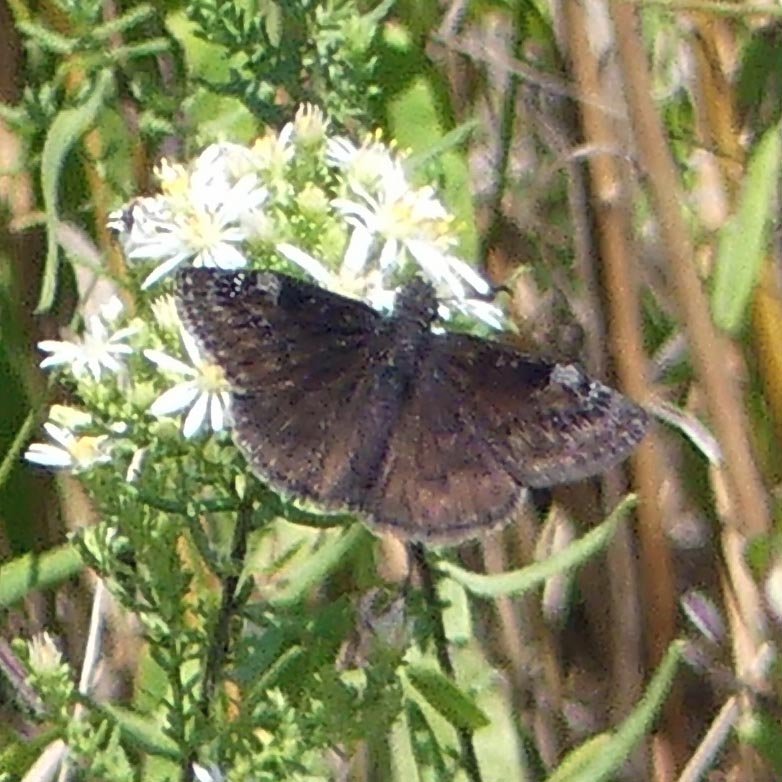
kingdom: Animalia
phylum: Arthropoda
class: Insecta
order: Lepidoptera
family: Hesperiidae
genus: Gesta
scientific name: Gesta
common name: Wild Indigo Duskywing
